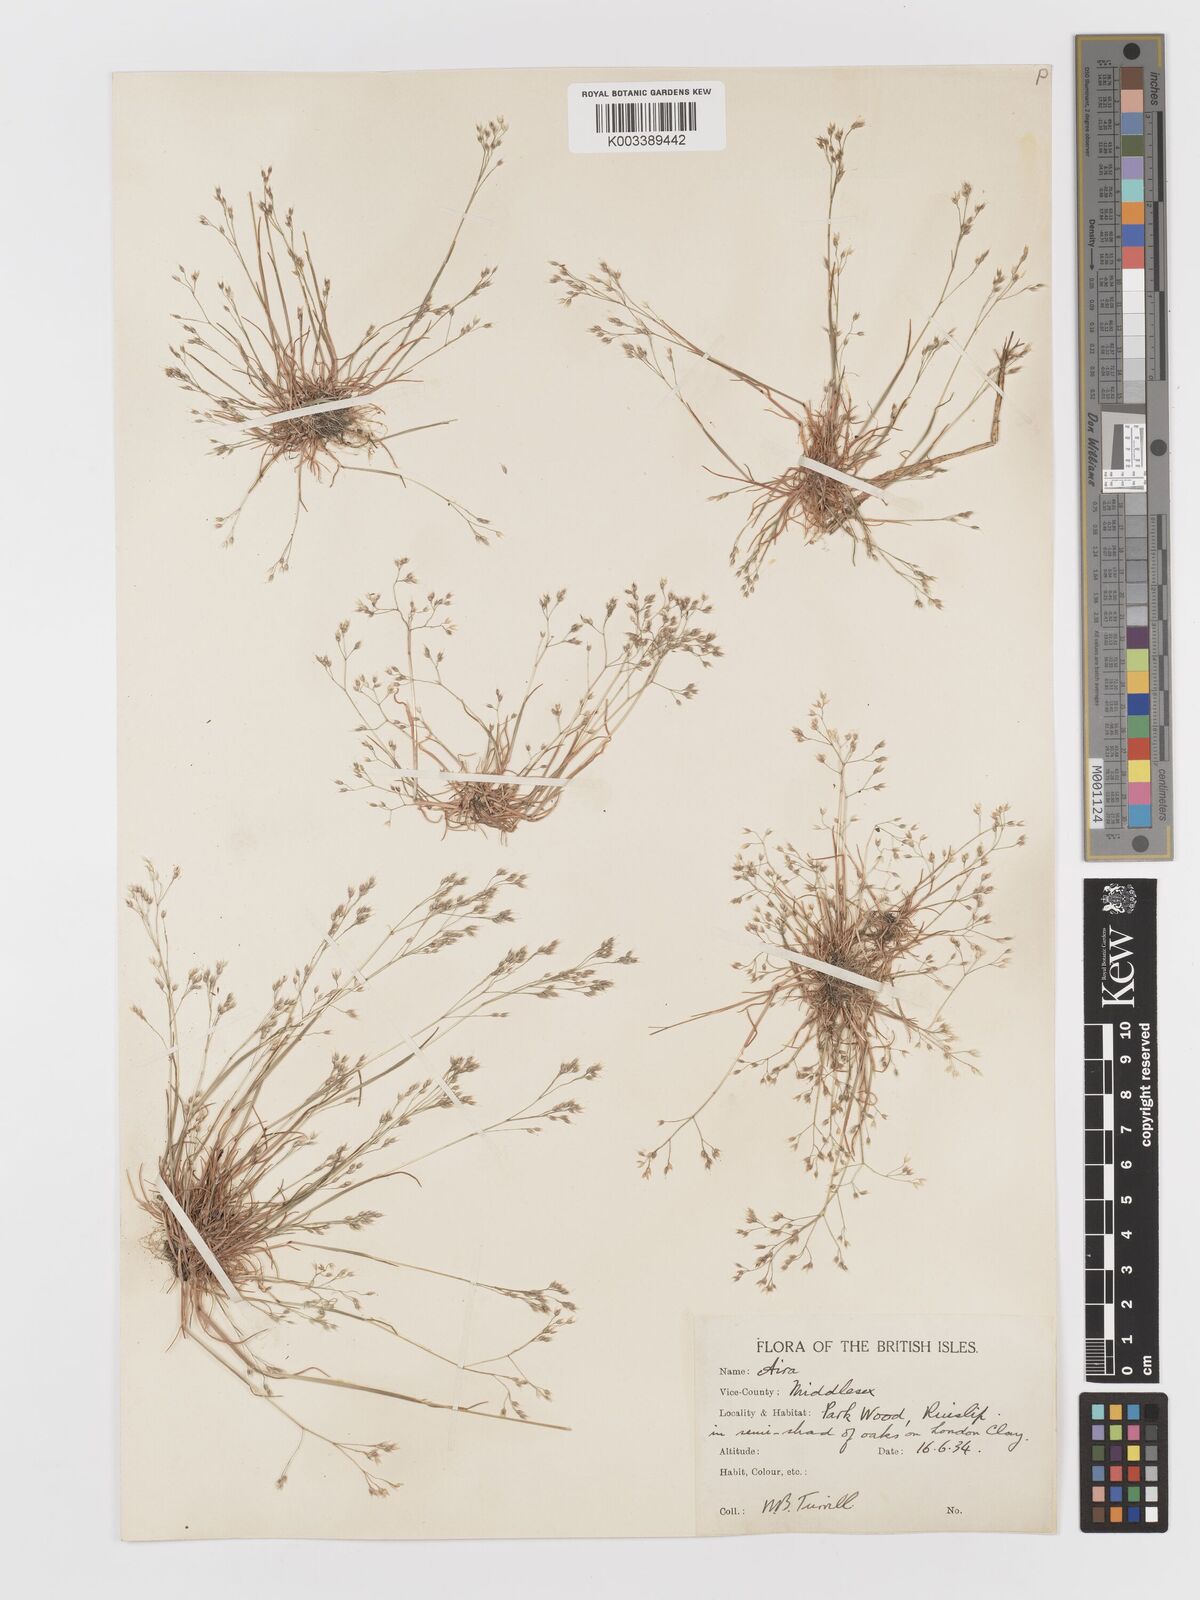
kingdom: Plantae
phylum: Tracheophyta
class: Liliopsida
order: Poales
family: Poaceae
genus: Aira
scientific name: Aira caryophyllea
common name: Silver hairgrass
